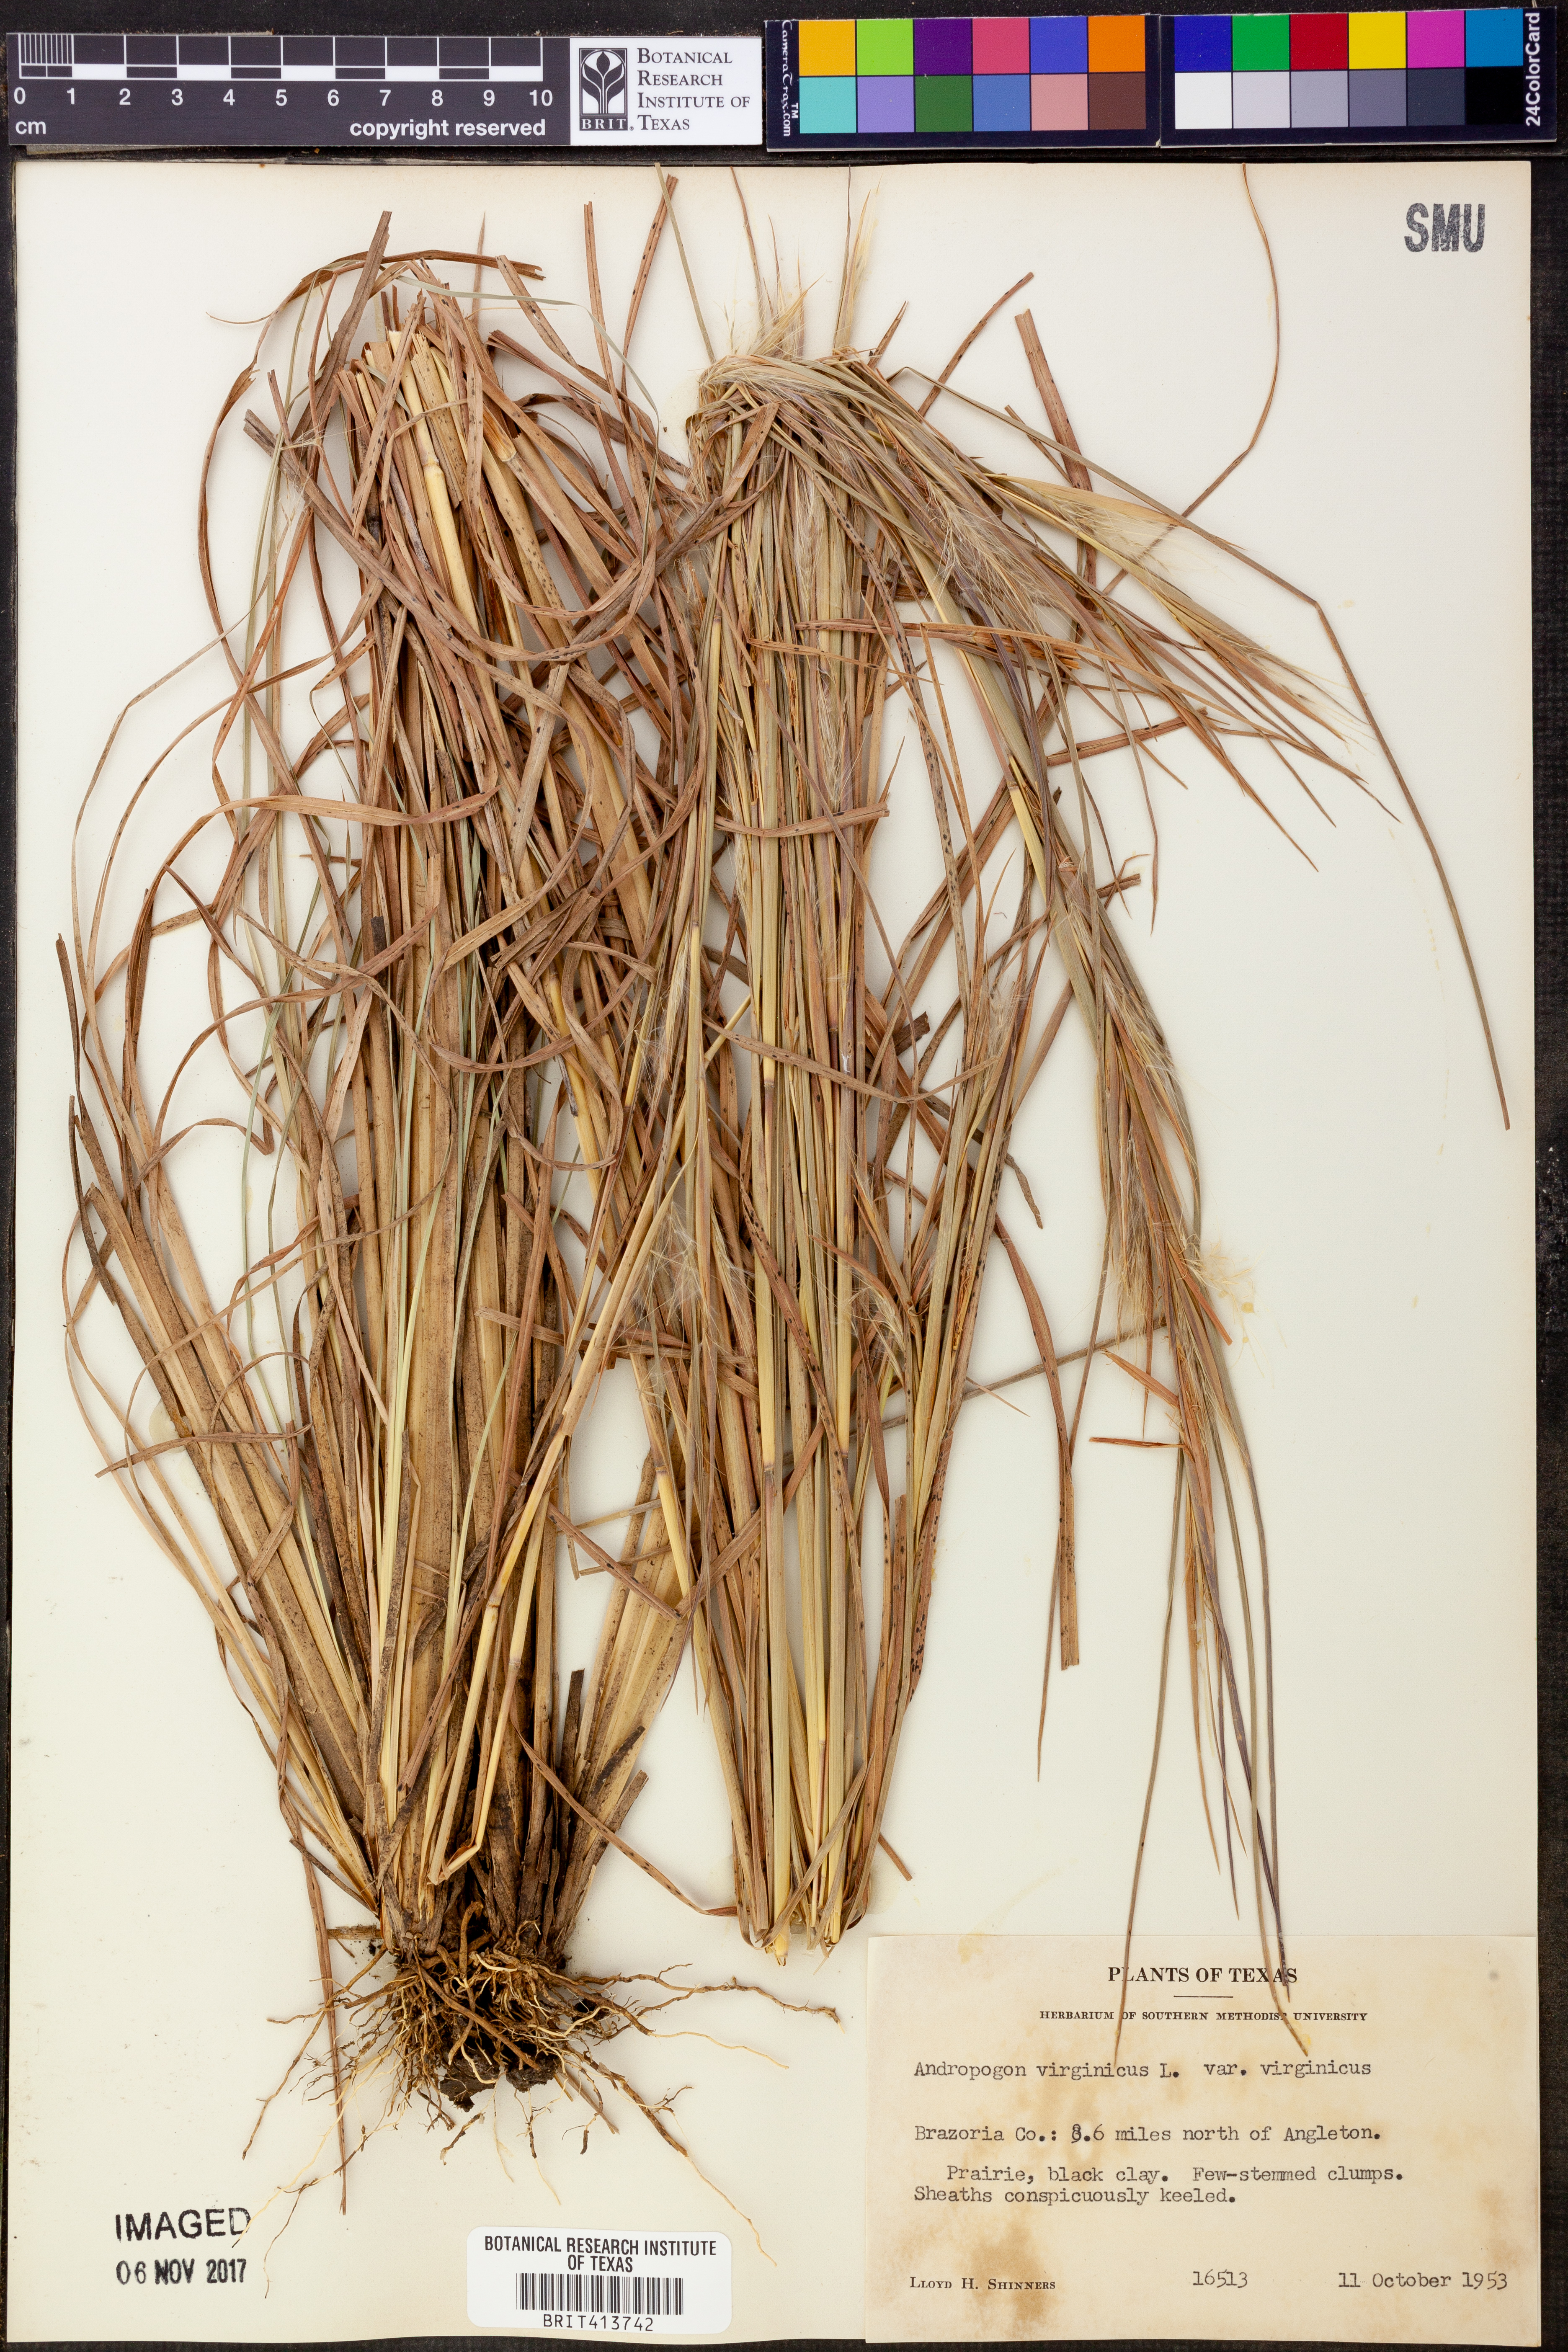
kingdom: Plantae
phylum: Tracheophyta
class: Liliopsida
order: Poales
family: Poaceae
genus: Andropogon
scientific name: Andropogon virginicus
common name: Broomsedge bluestem
